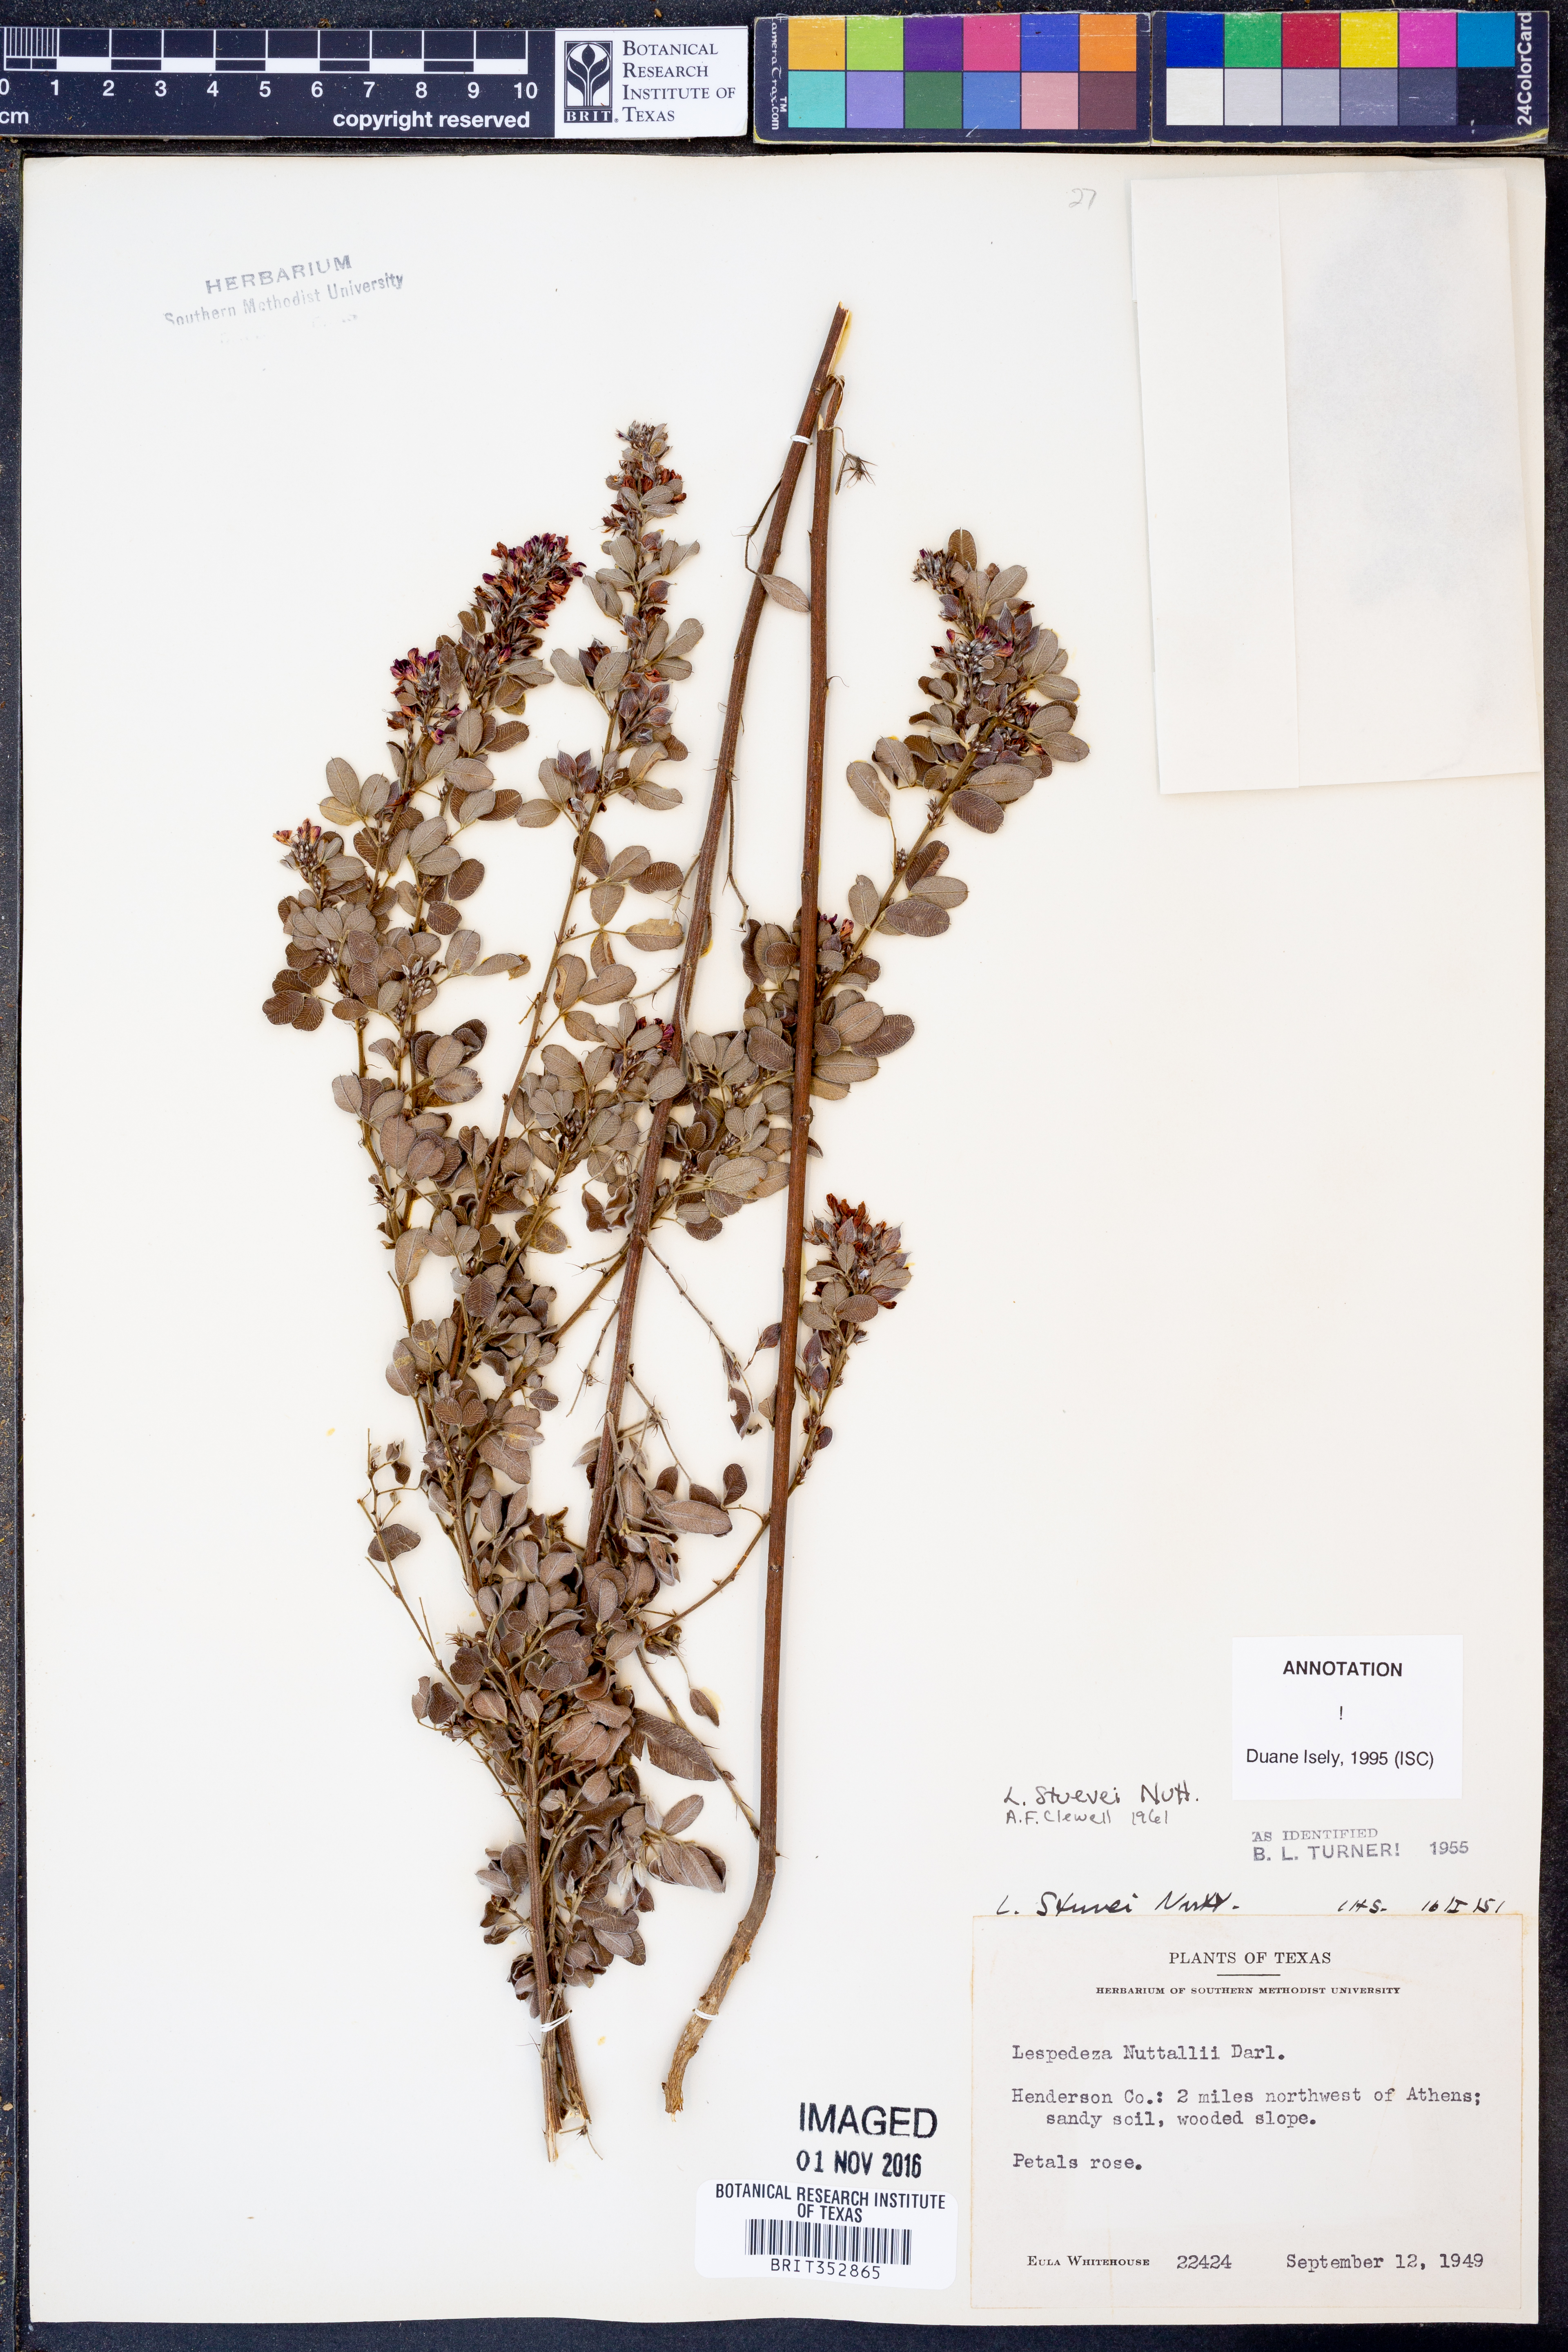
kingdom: Plantae
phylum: Tracheophyta
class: Magnoliopsida
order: Fabales
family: Fabaceae
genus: Lespedeza
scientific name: Lespedeza stuevei
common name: Tall bush-clover
